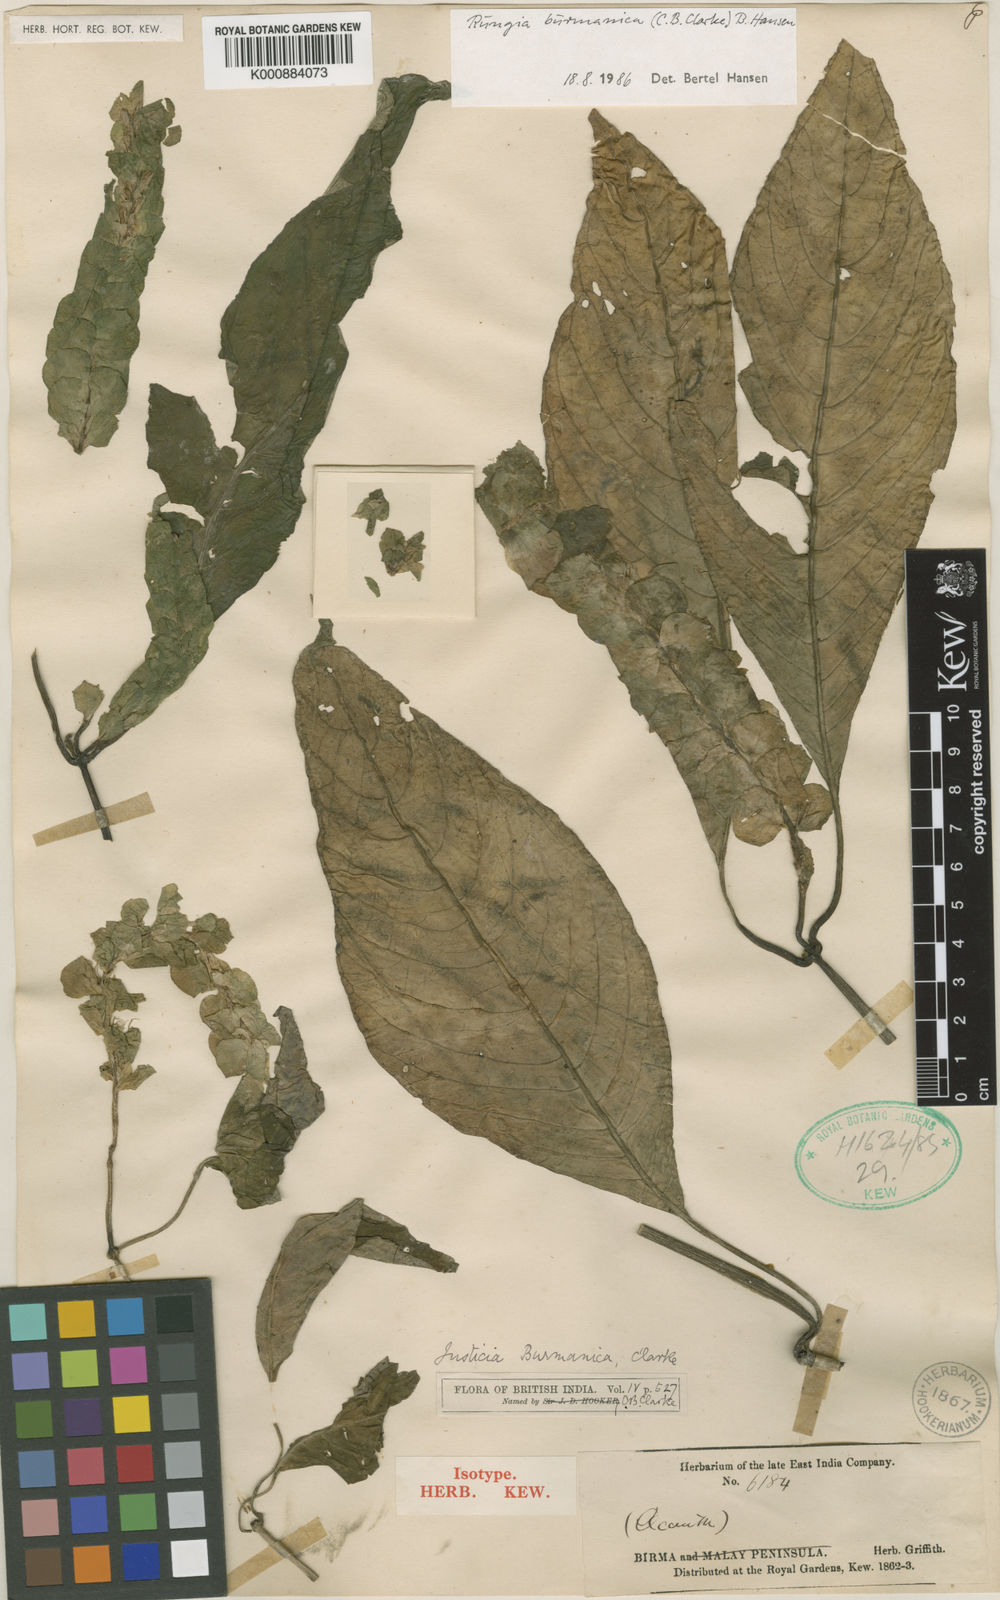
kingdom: Plantae
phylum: Tracheophyta
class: Magnoliopsida
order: Lamiales
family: Acanthaceae
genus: Rungia
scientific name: Rungia burmanica
